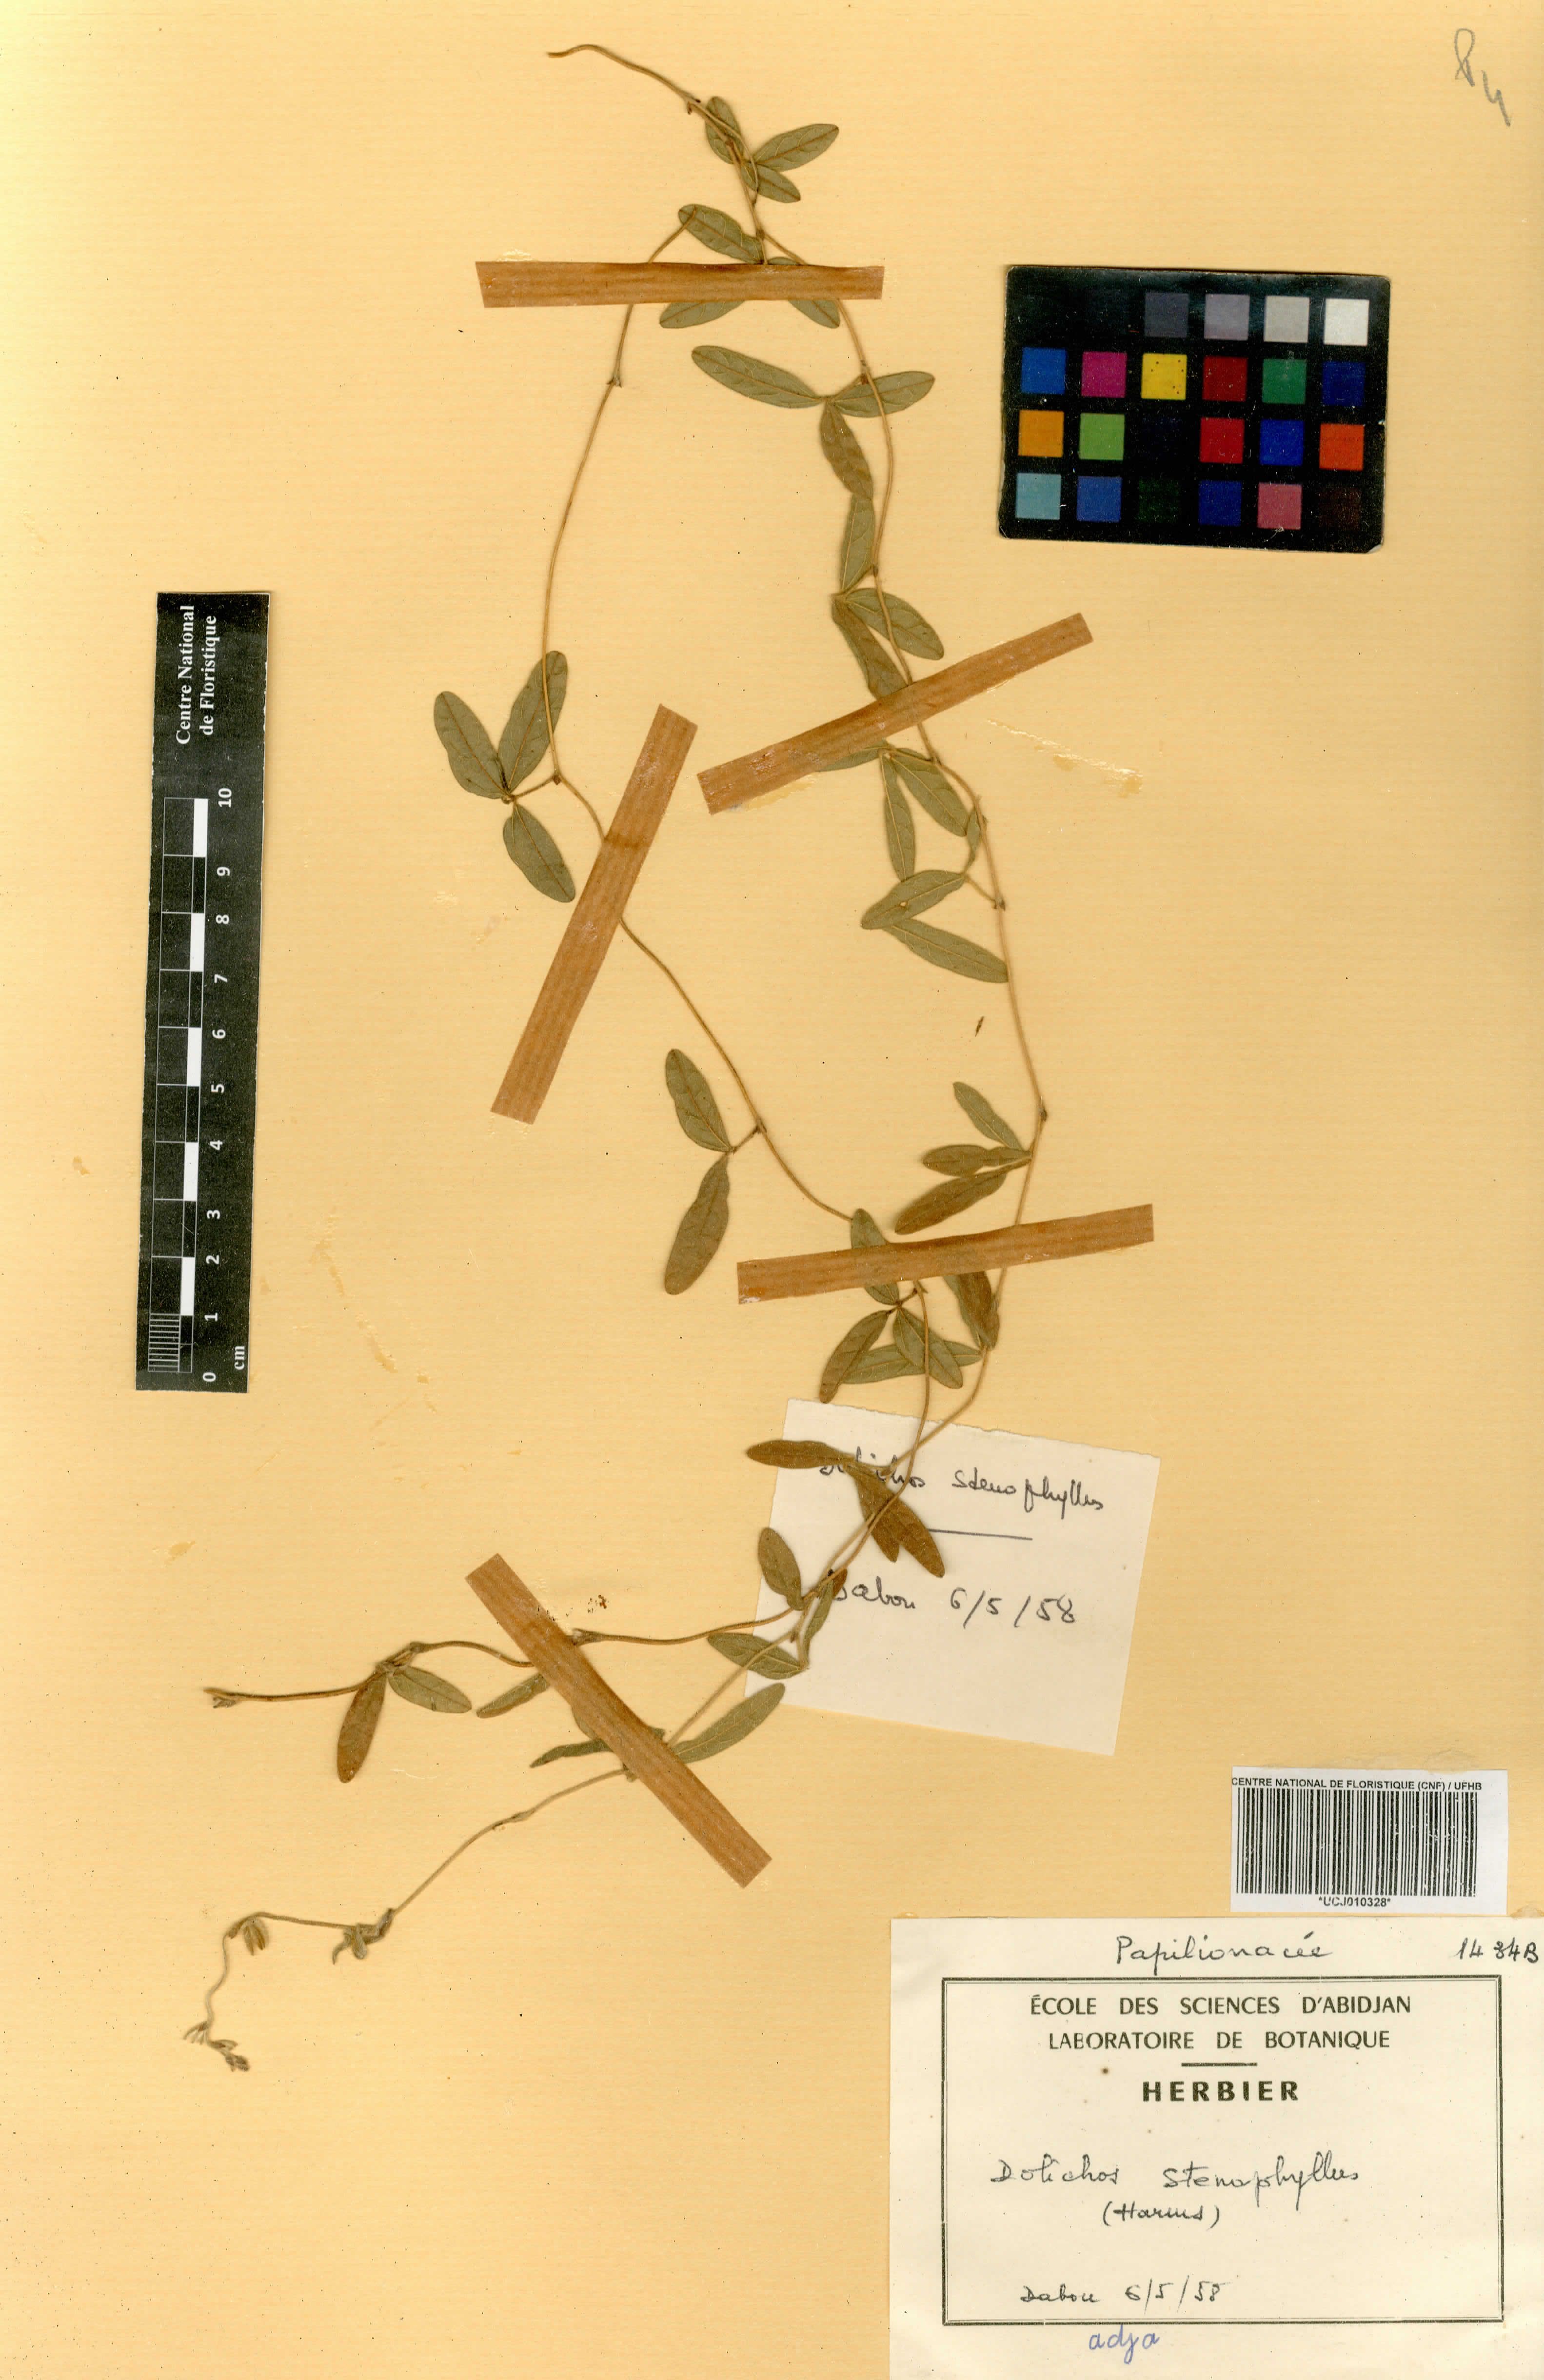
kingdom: Plantae
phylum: Tracheophyta
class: Magnoliopsida
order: Fabales
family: Fabaceae
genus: Macrotyloma
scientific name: Macrotyloma stenophyllum
